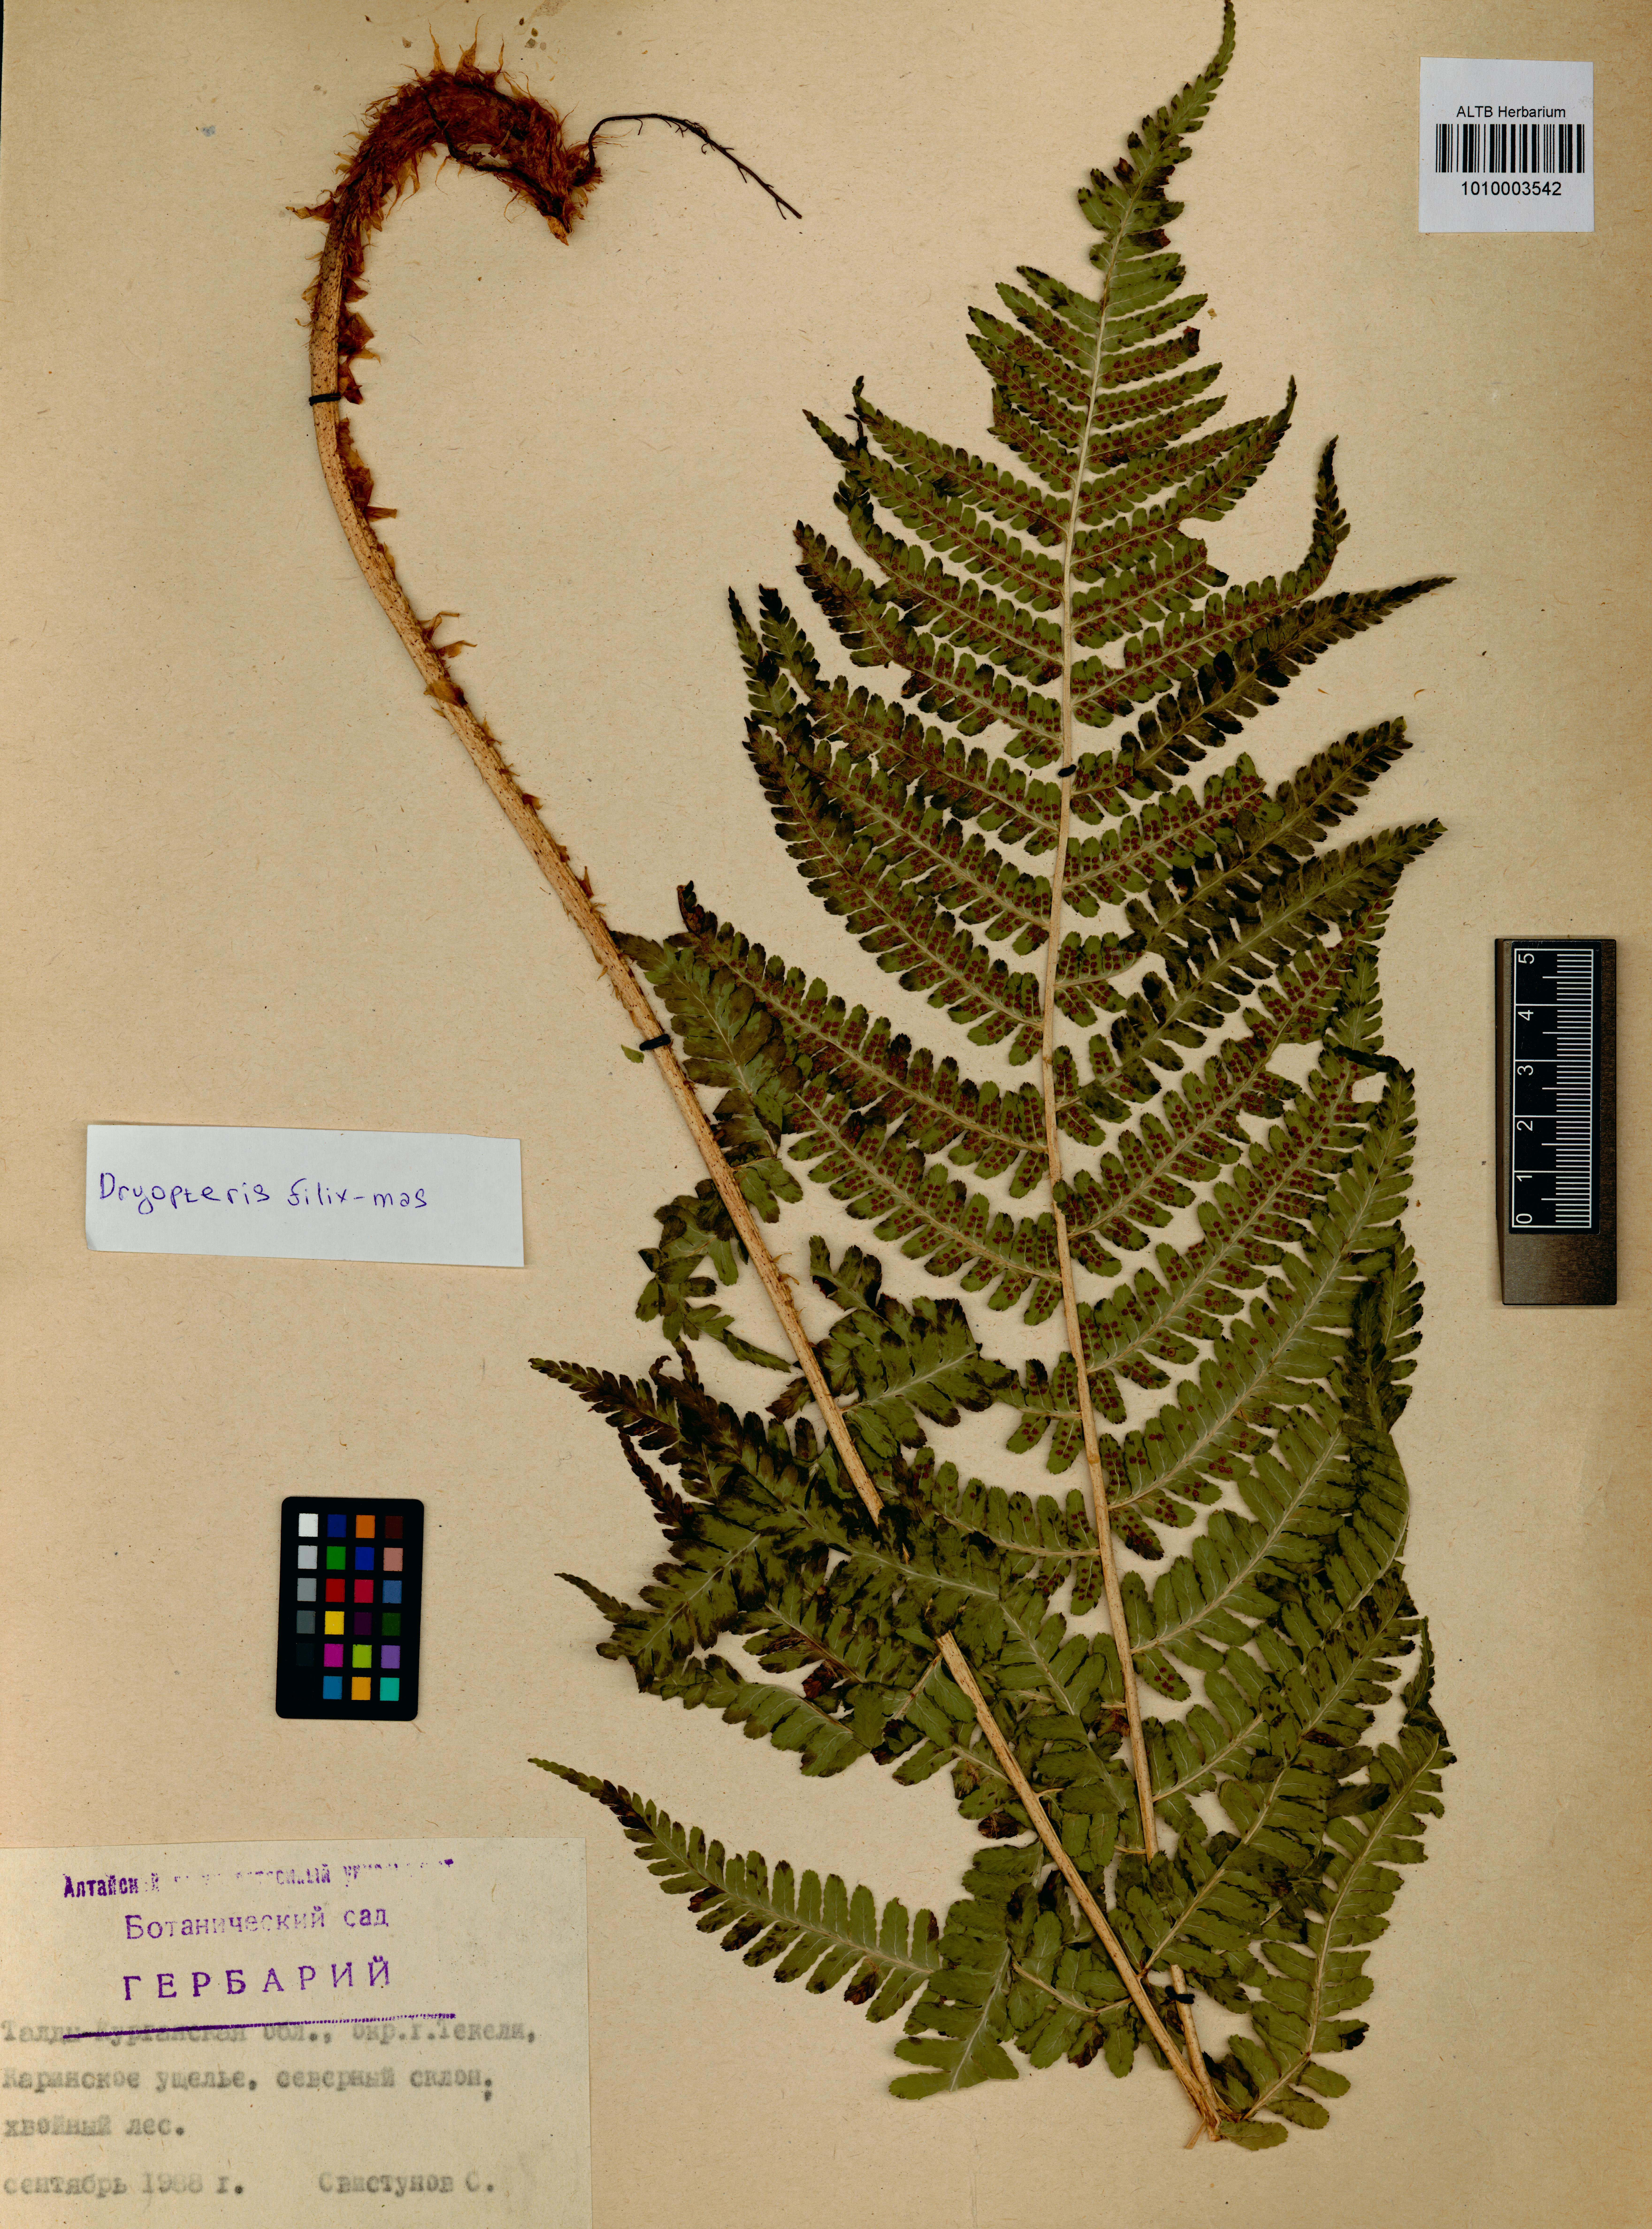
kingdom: Plantae
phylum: Tracheophyta
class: Polypodiopsida
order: Polypodiales
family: Dryopteridaceae
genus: Dryopteris
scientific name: Dryopteris filix-mas
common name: Male fern
